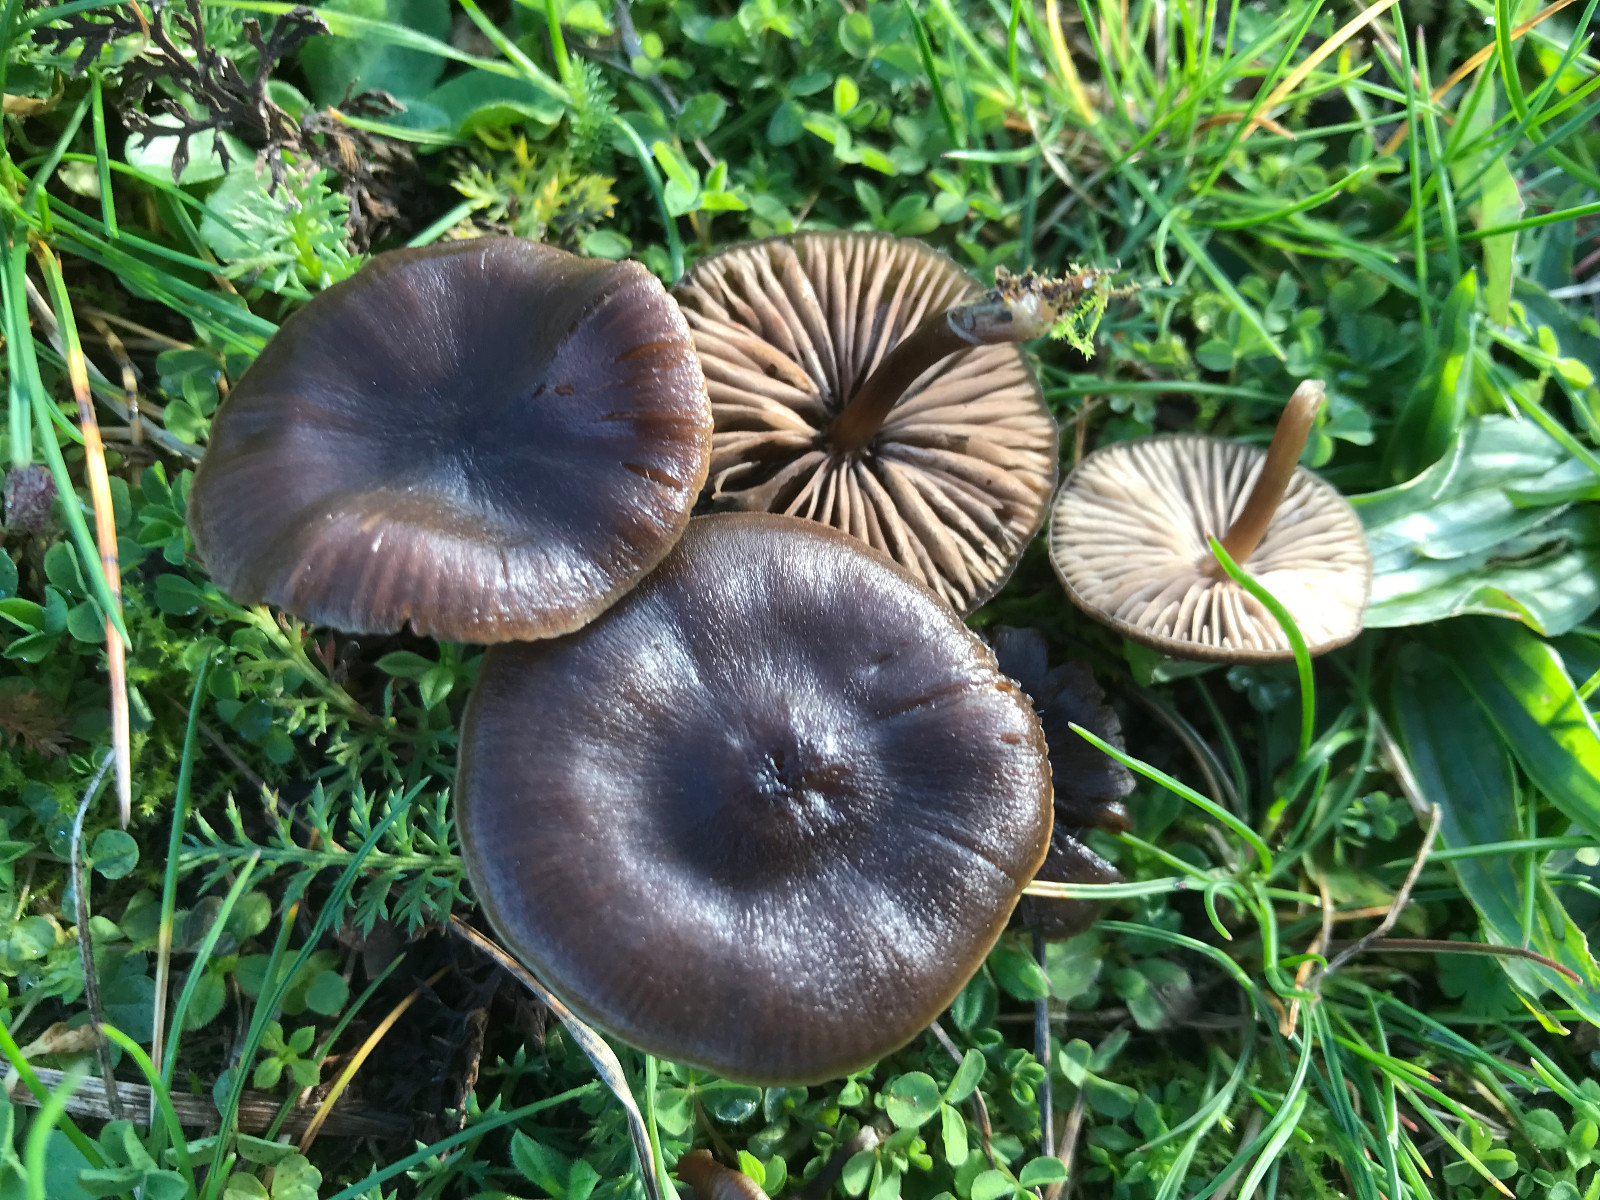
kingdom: Fungi
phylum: Basidiomycota
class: Agaricomycetes
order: Agaricales
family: Entolomataceae
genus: Entoloma
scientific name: Entoloma
